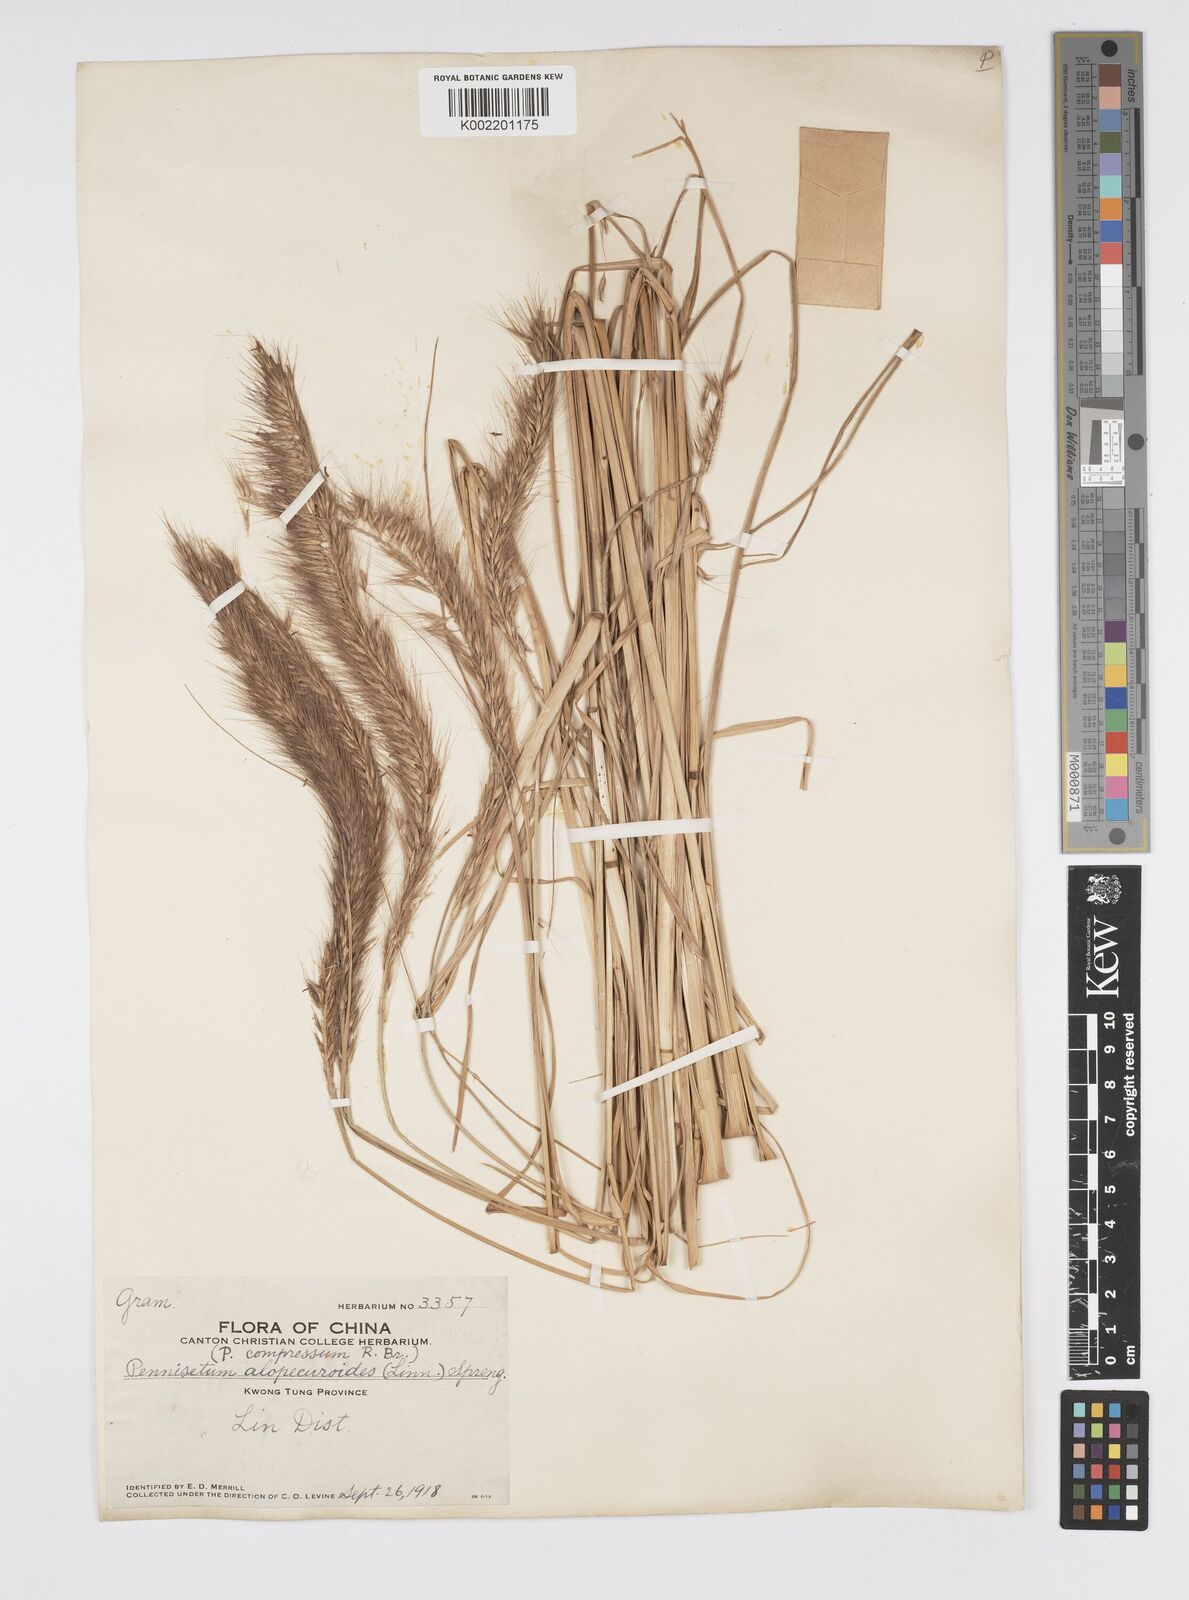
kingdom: Plantae
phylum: Tracheophyta
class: Liliopsida
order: Poales
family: Poaceae
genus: Cenchrus
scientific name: Cenchrus alopecuroides
